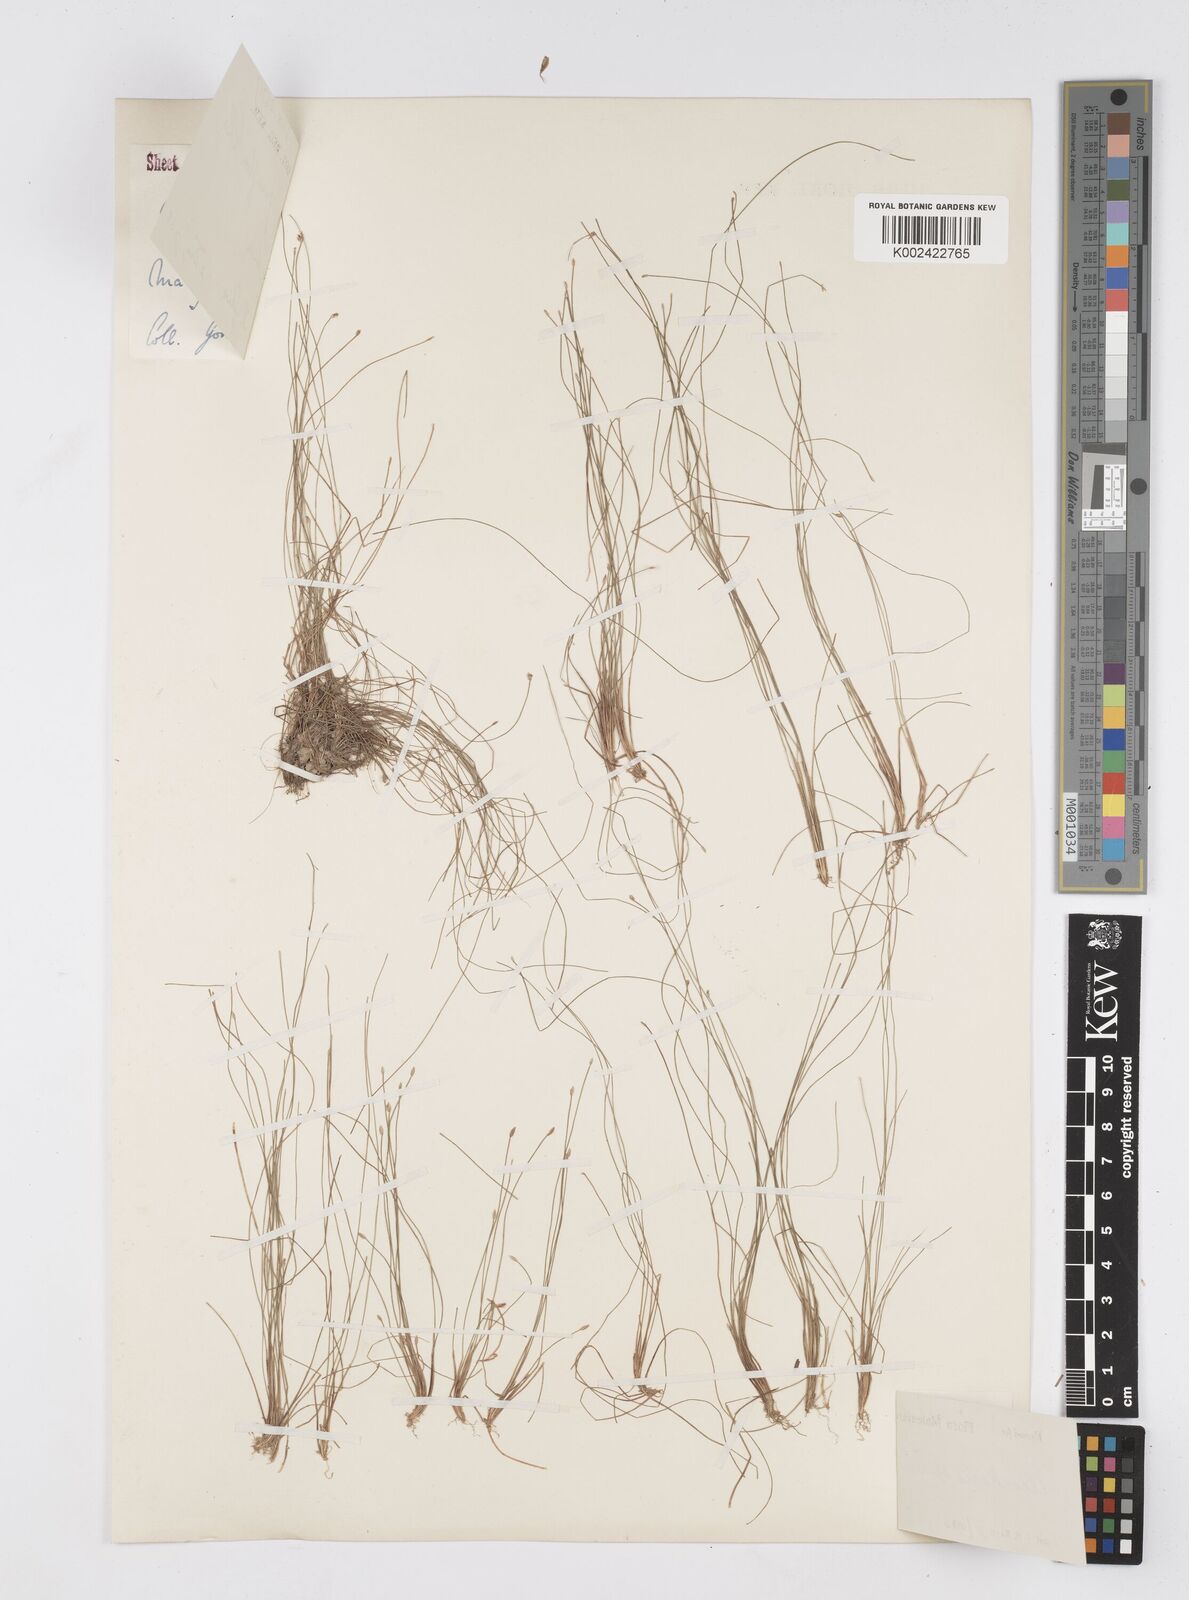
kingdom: Plantae
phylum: Tracheophyta
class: Liliopsida
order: Poales
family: Cyperaceae
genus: Eleocharis
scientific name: Eleocharis retroflexa
